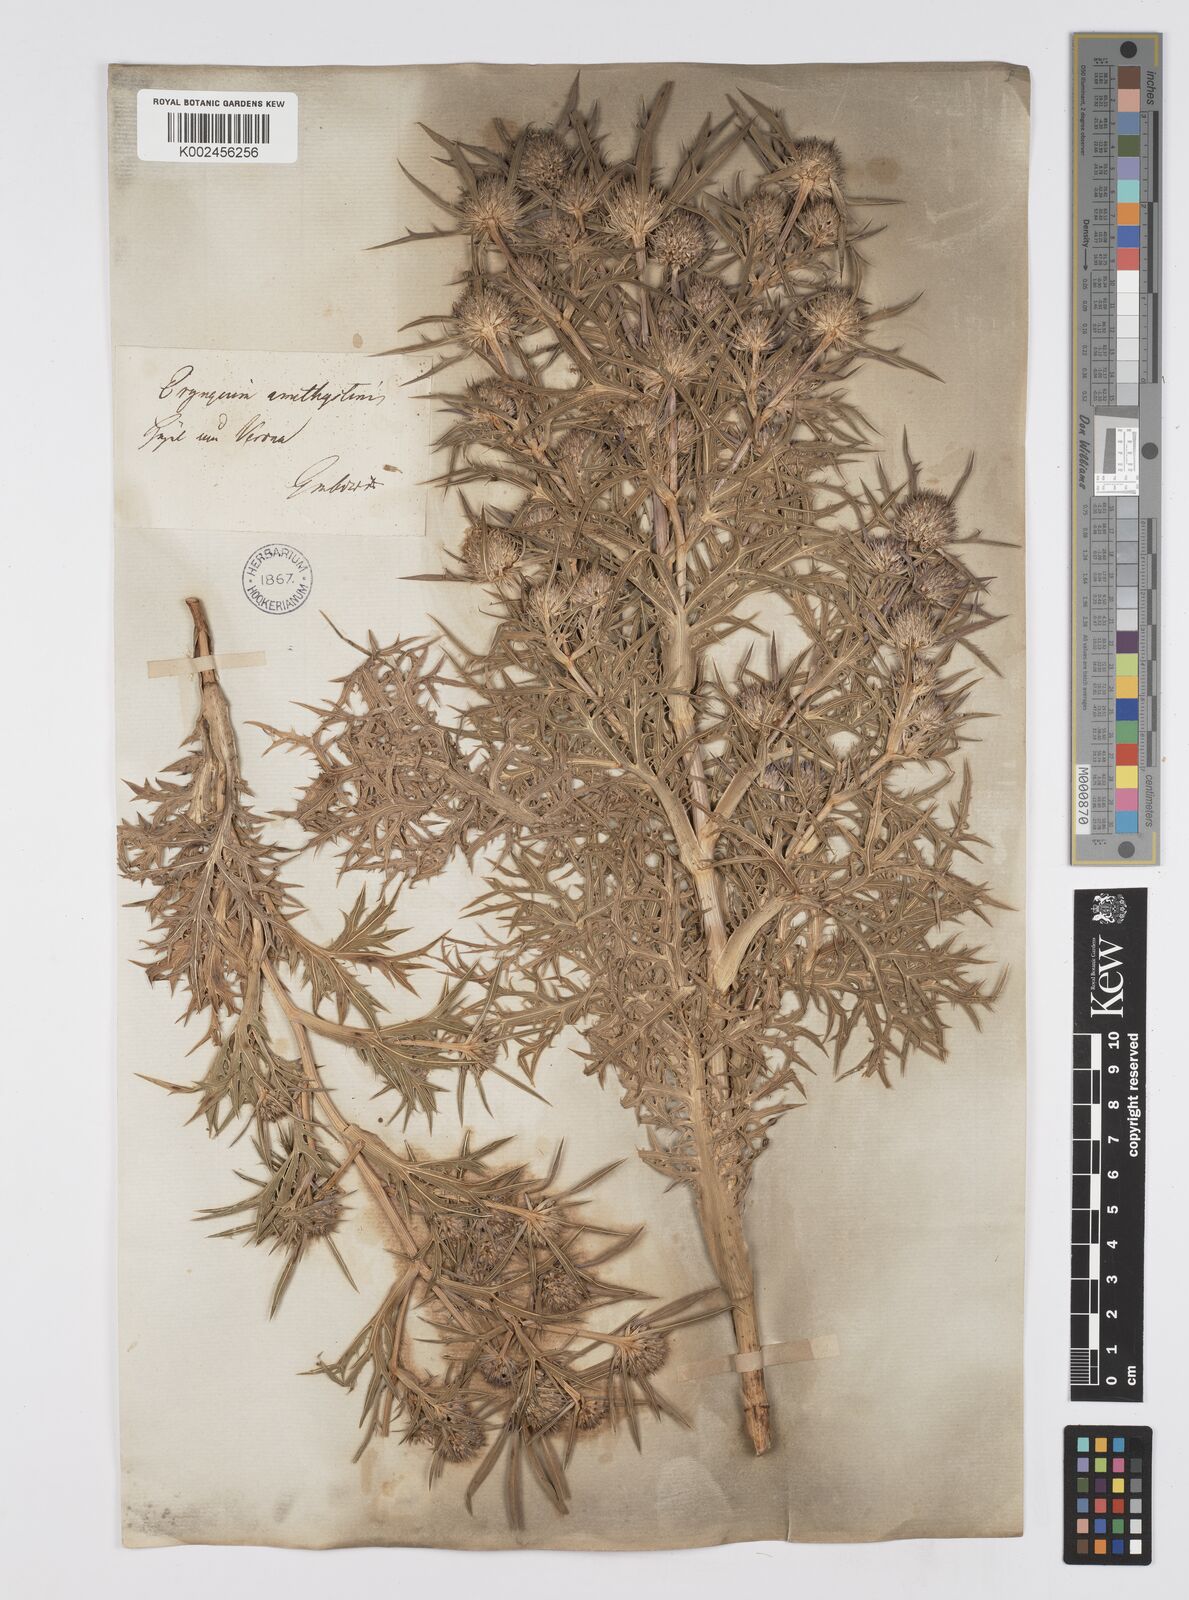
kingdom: Plantae
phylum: Tracheophyta
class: Magnoliopsida
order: Apiales
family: Apiaceae
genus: Eryngium
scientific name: Eryngium amethystinum
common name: Amethyst eryngo
